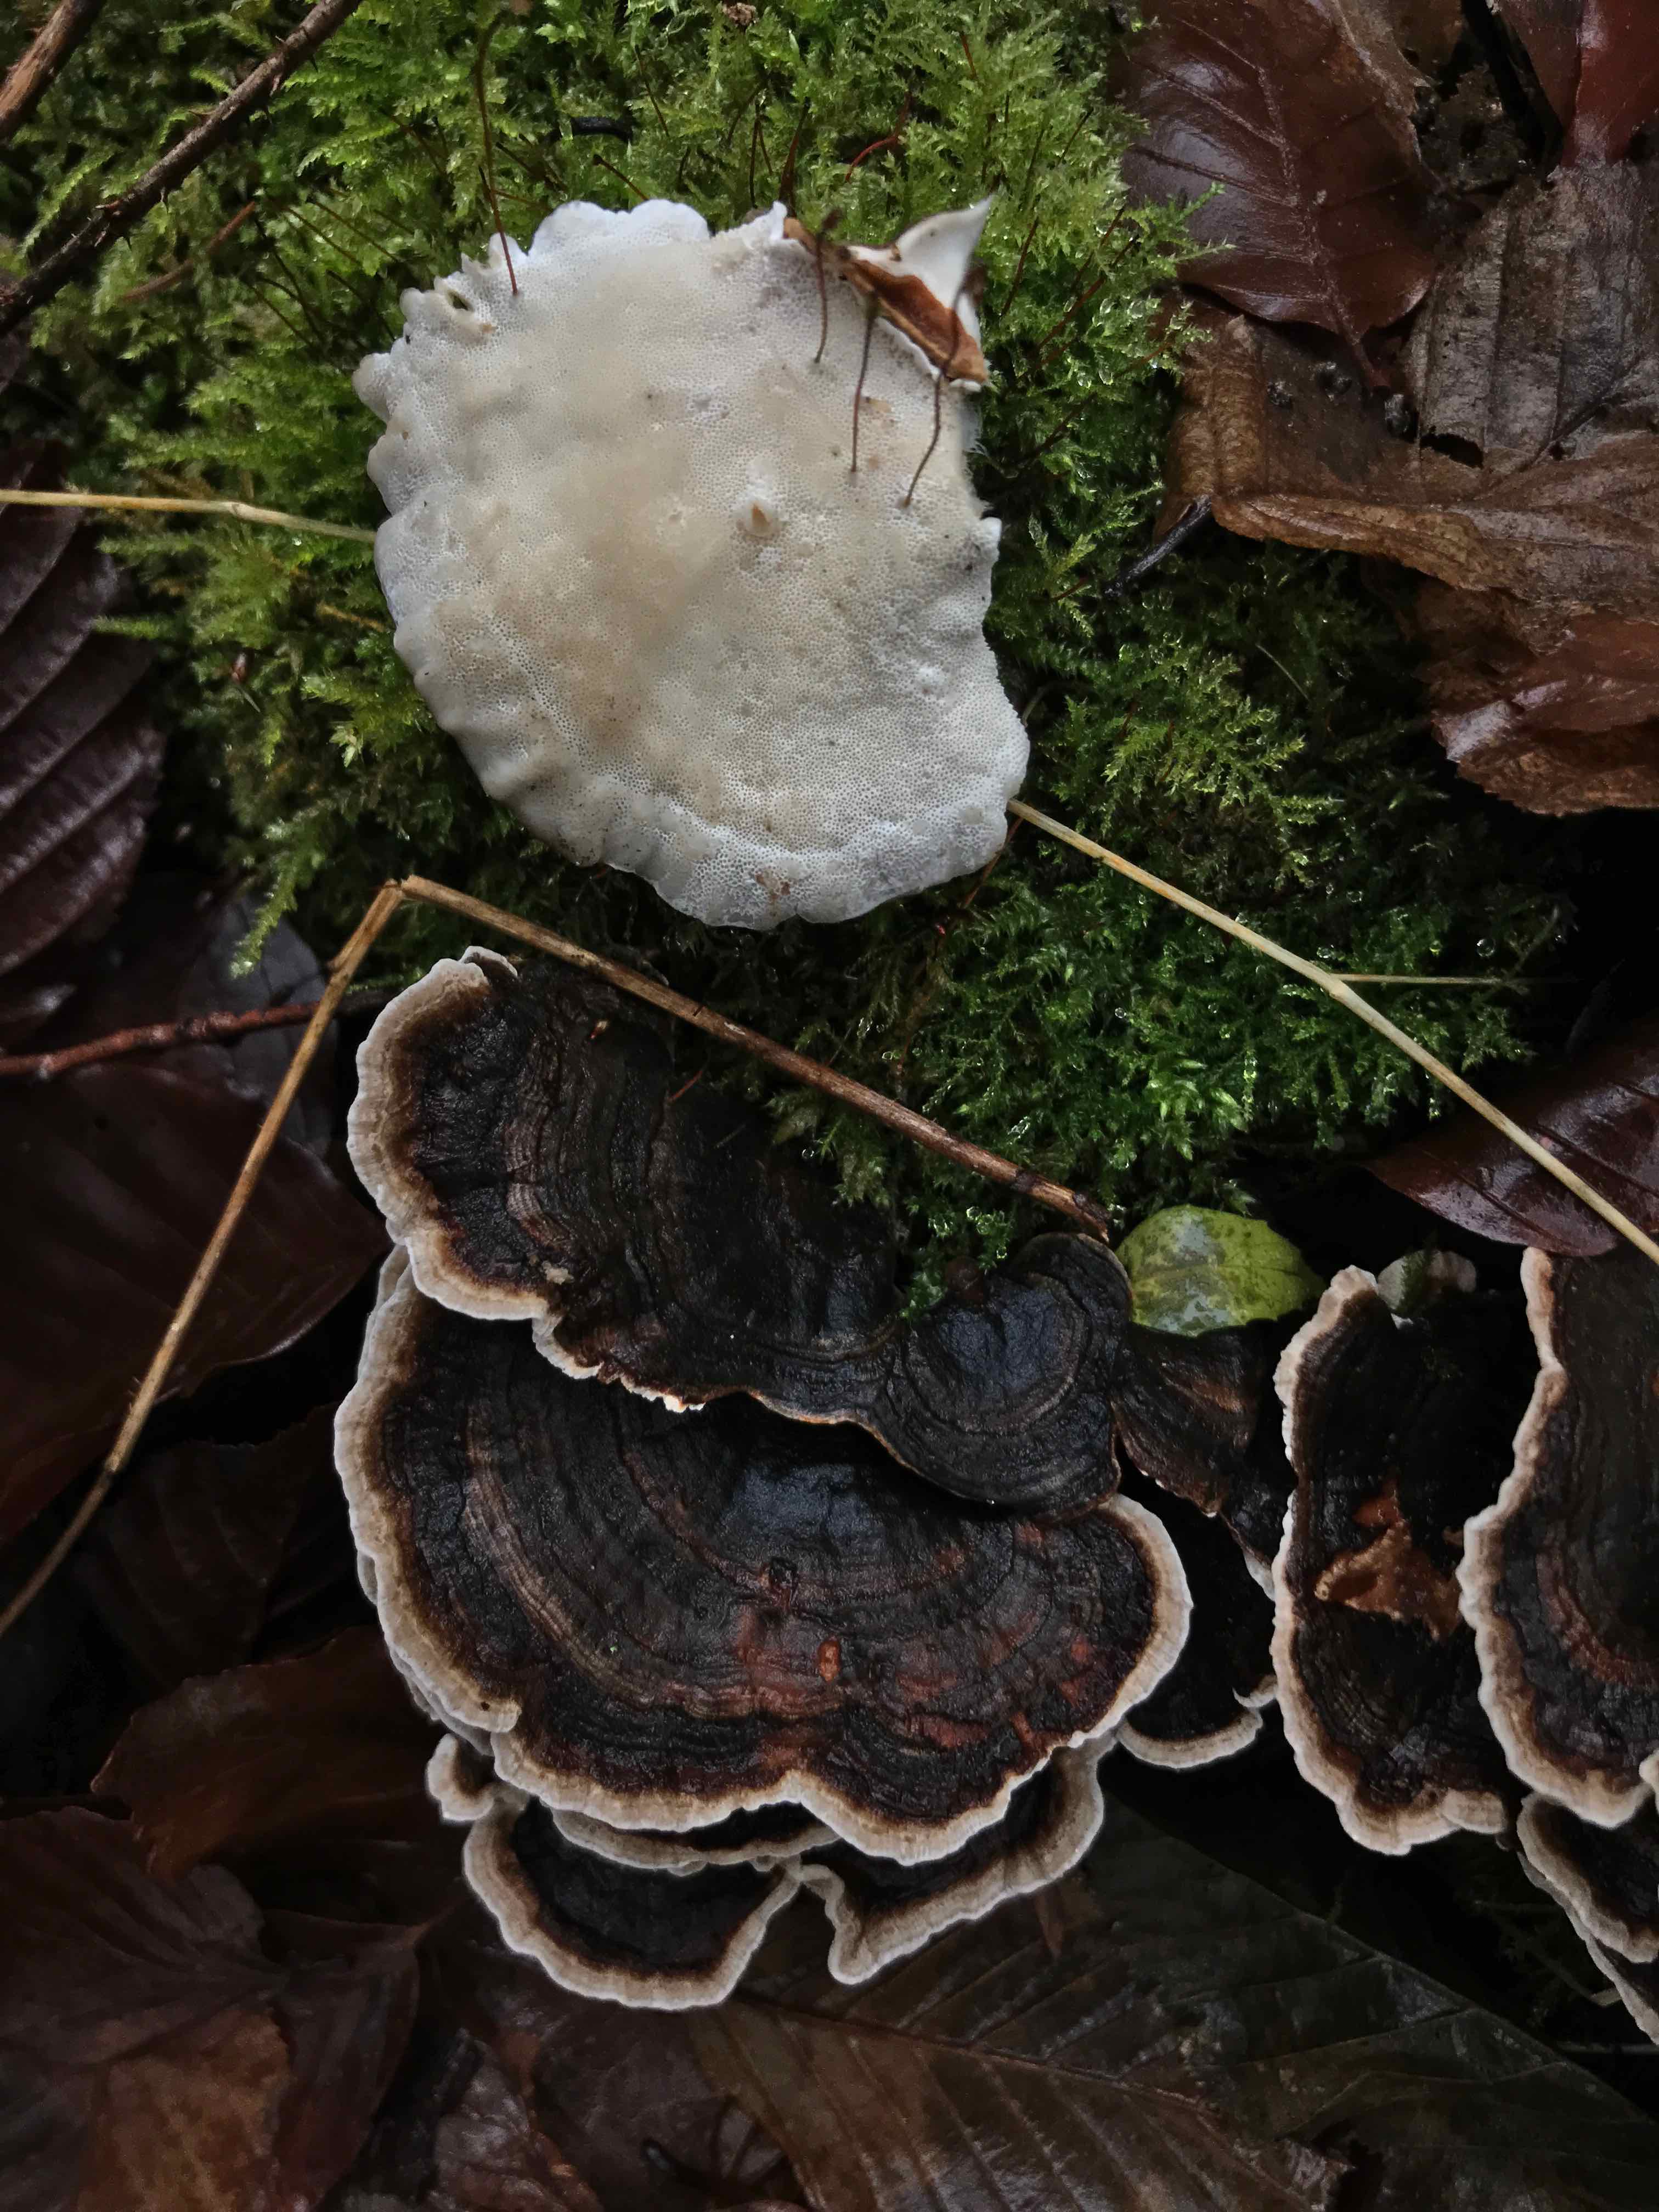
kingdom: Fungi
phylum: Basidiomycota
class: Agaricomycetes
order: Polyporales
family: Polyporaceae
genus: Trametes
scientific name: Trametes versicolor
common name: broget læderporesvamp
